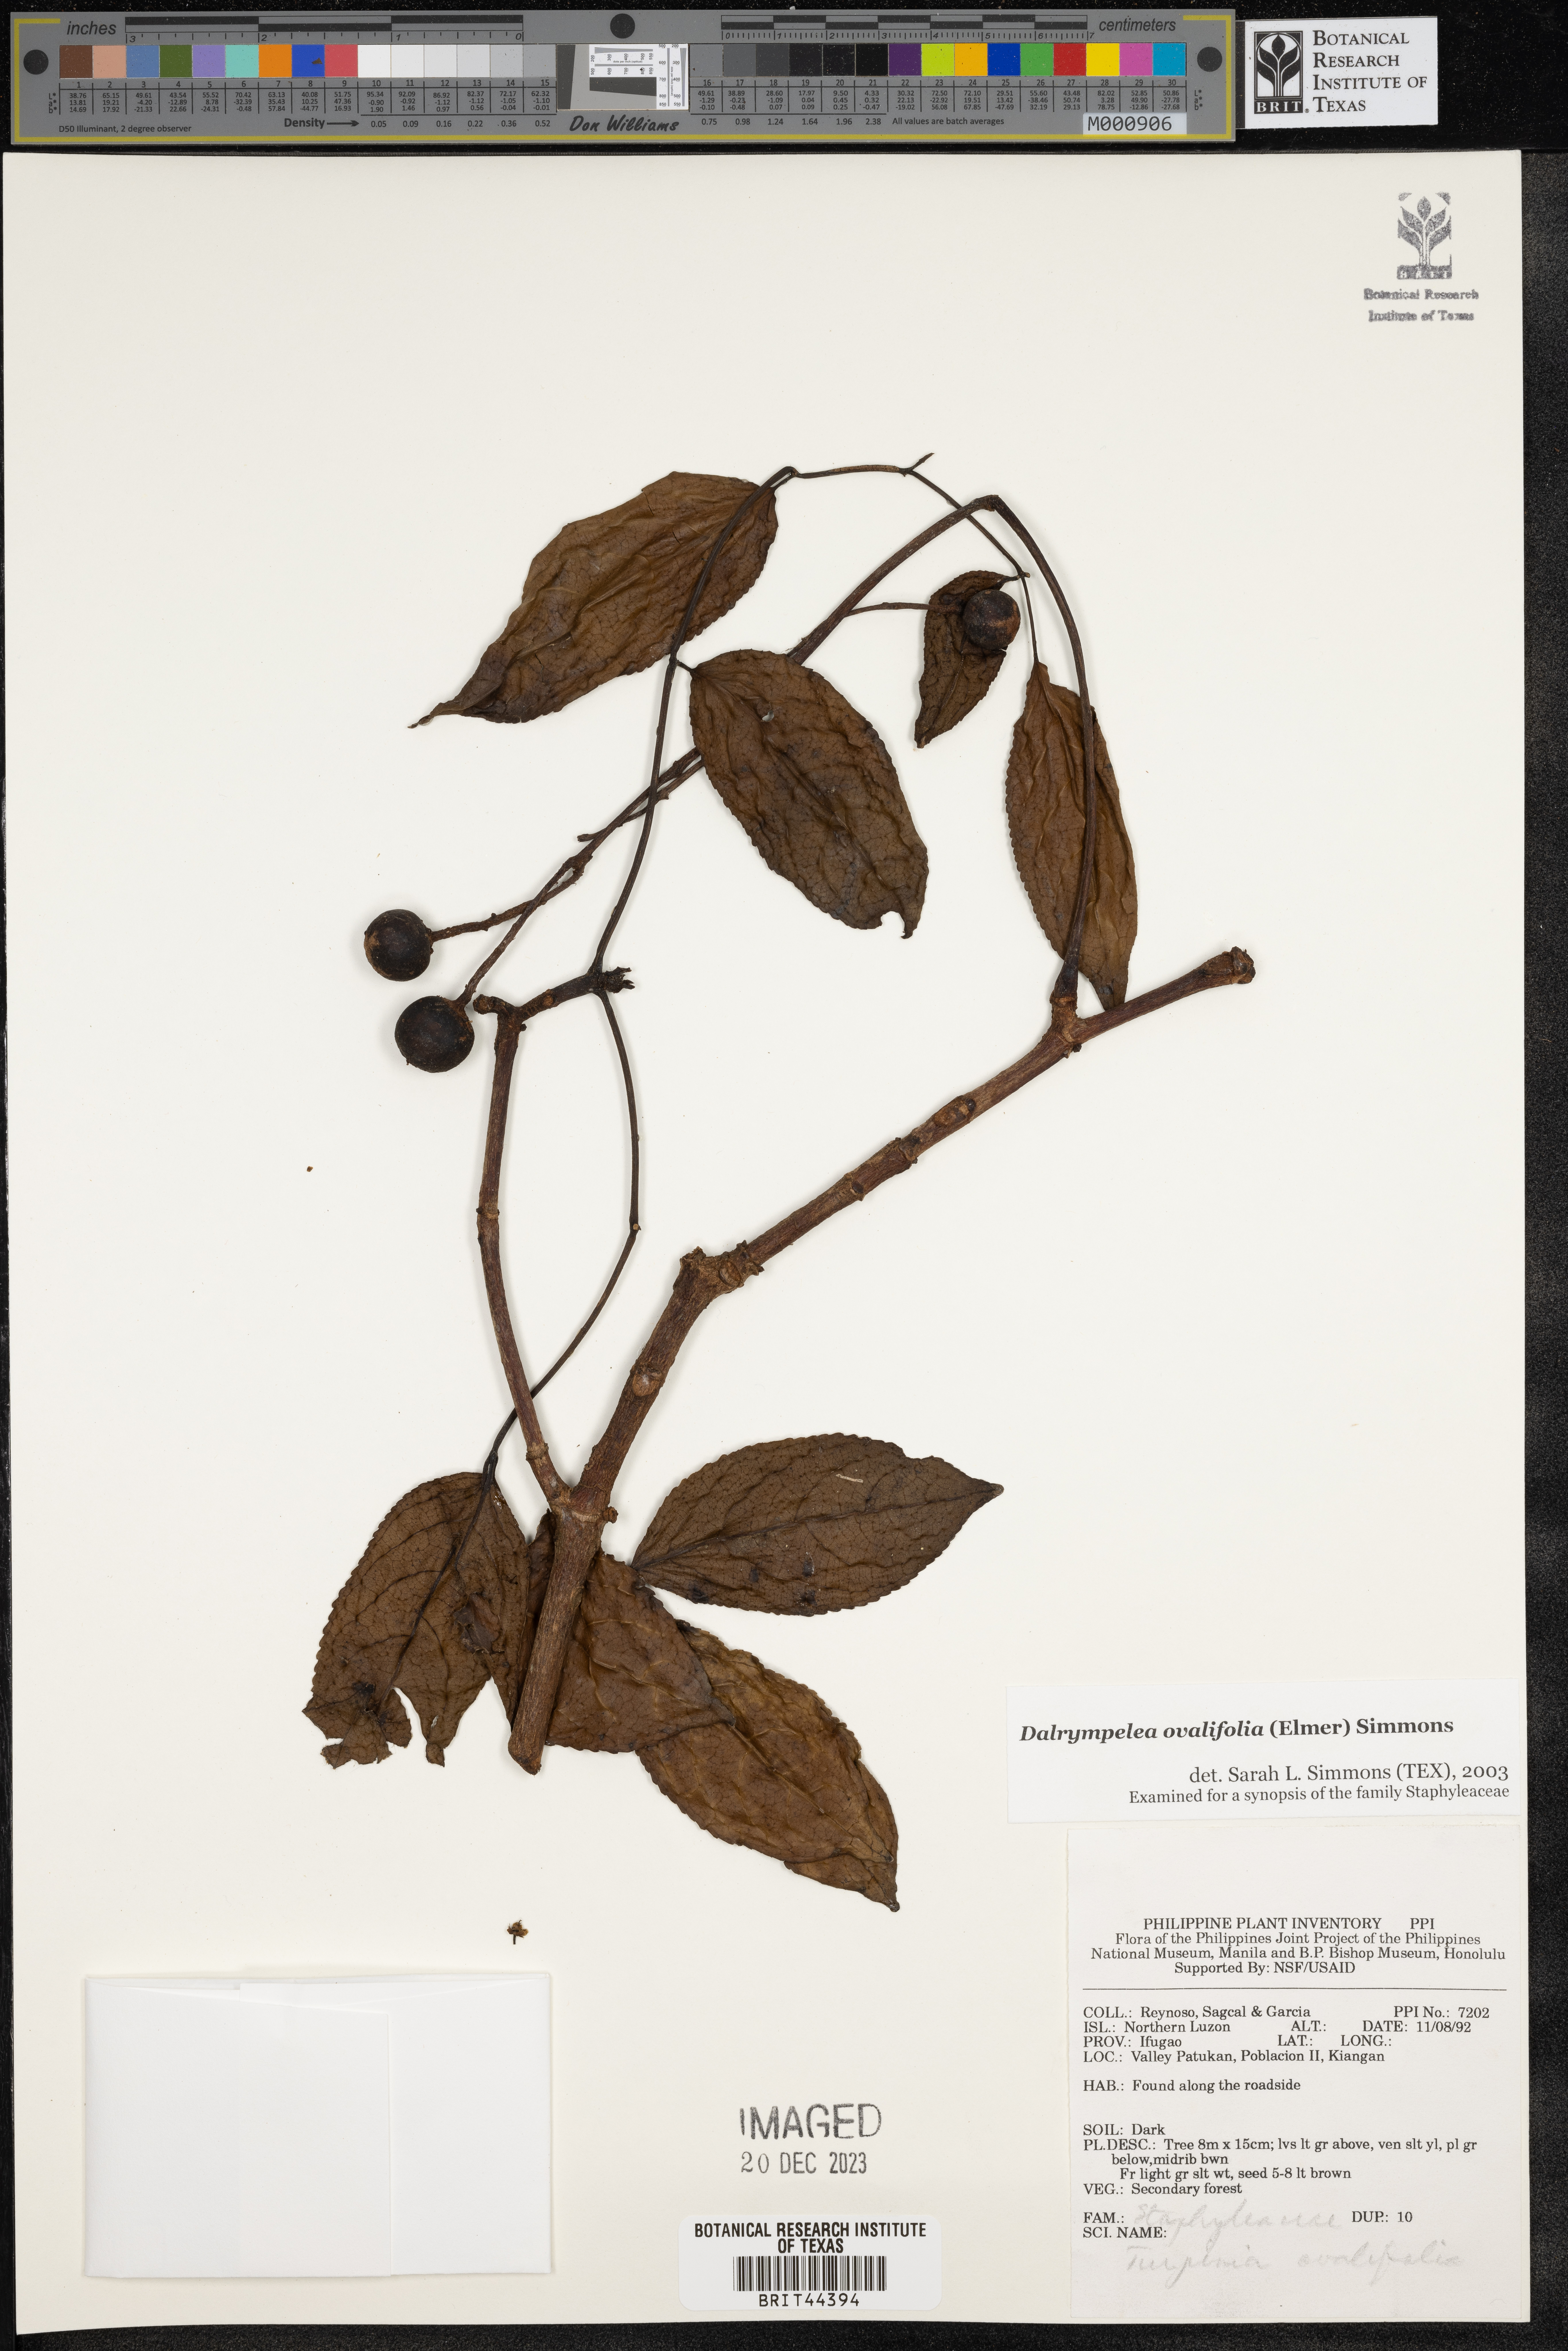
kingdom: Plantae
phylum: Tracheophyta
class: Magnoliopsida
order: Crossosomatales
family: Staphyleaceae
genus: Dalrympelea
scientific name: Dalrympelea
